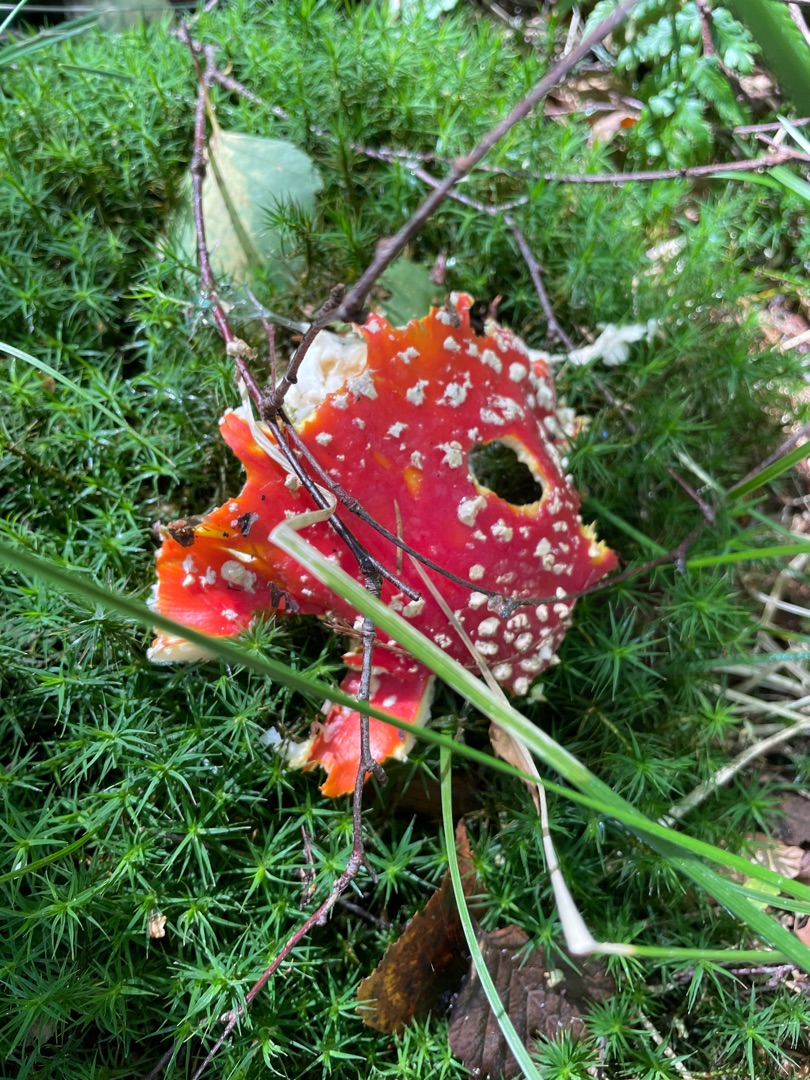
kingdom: Fungi
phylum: Basidiomycota
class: Agaricomycetes
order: Agaricales
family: Amanitaceae
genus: Amanita
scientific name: Amanita muscaria
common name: Rød fluesvamp
